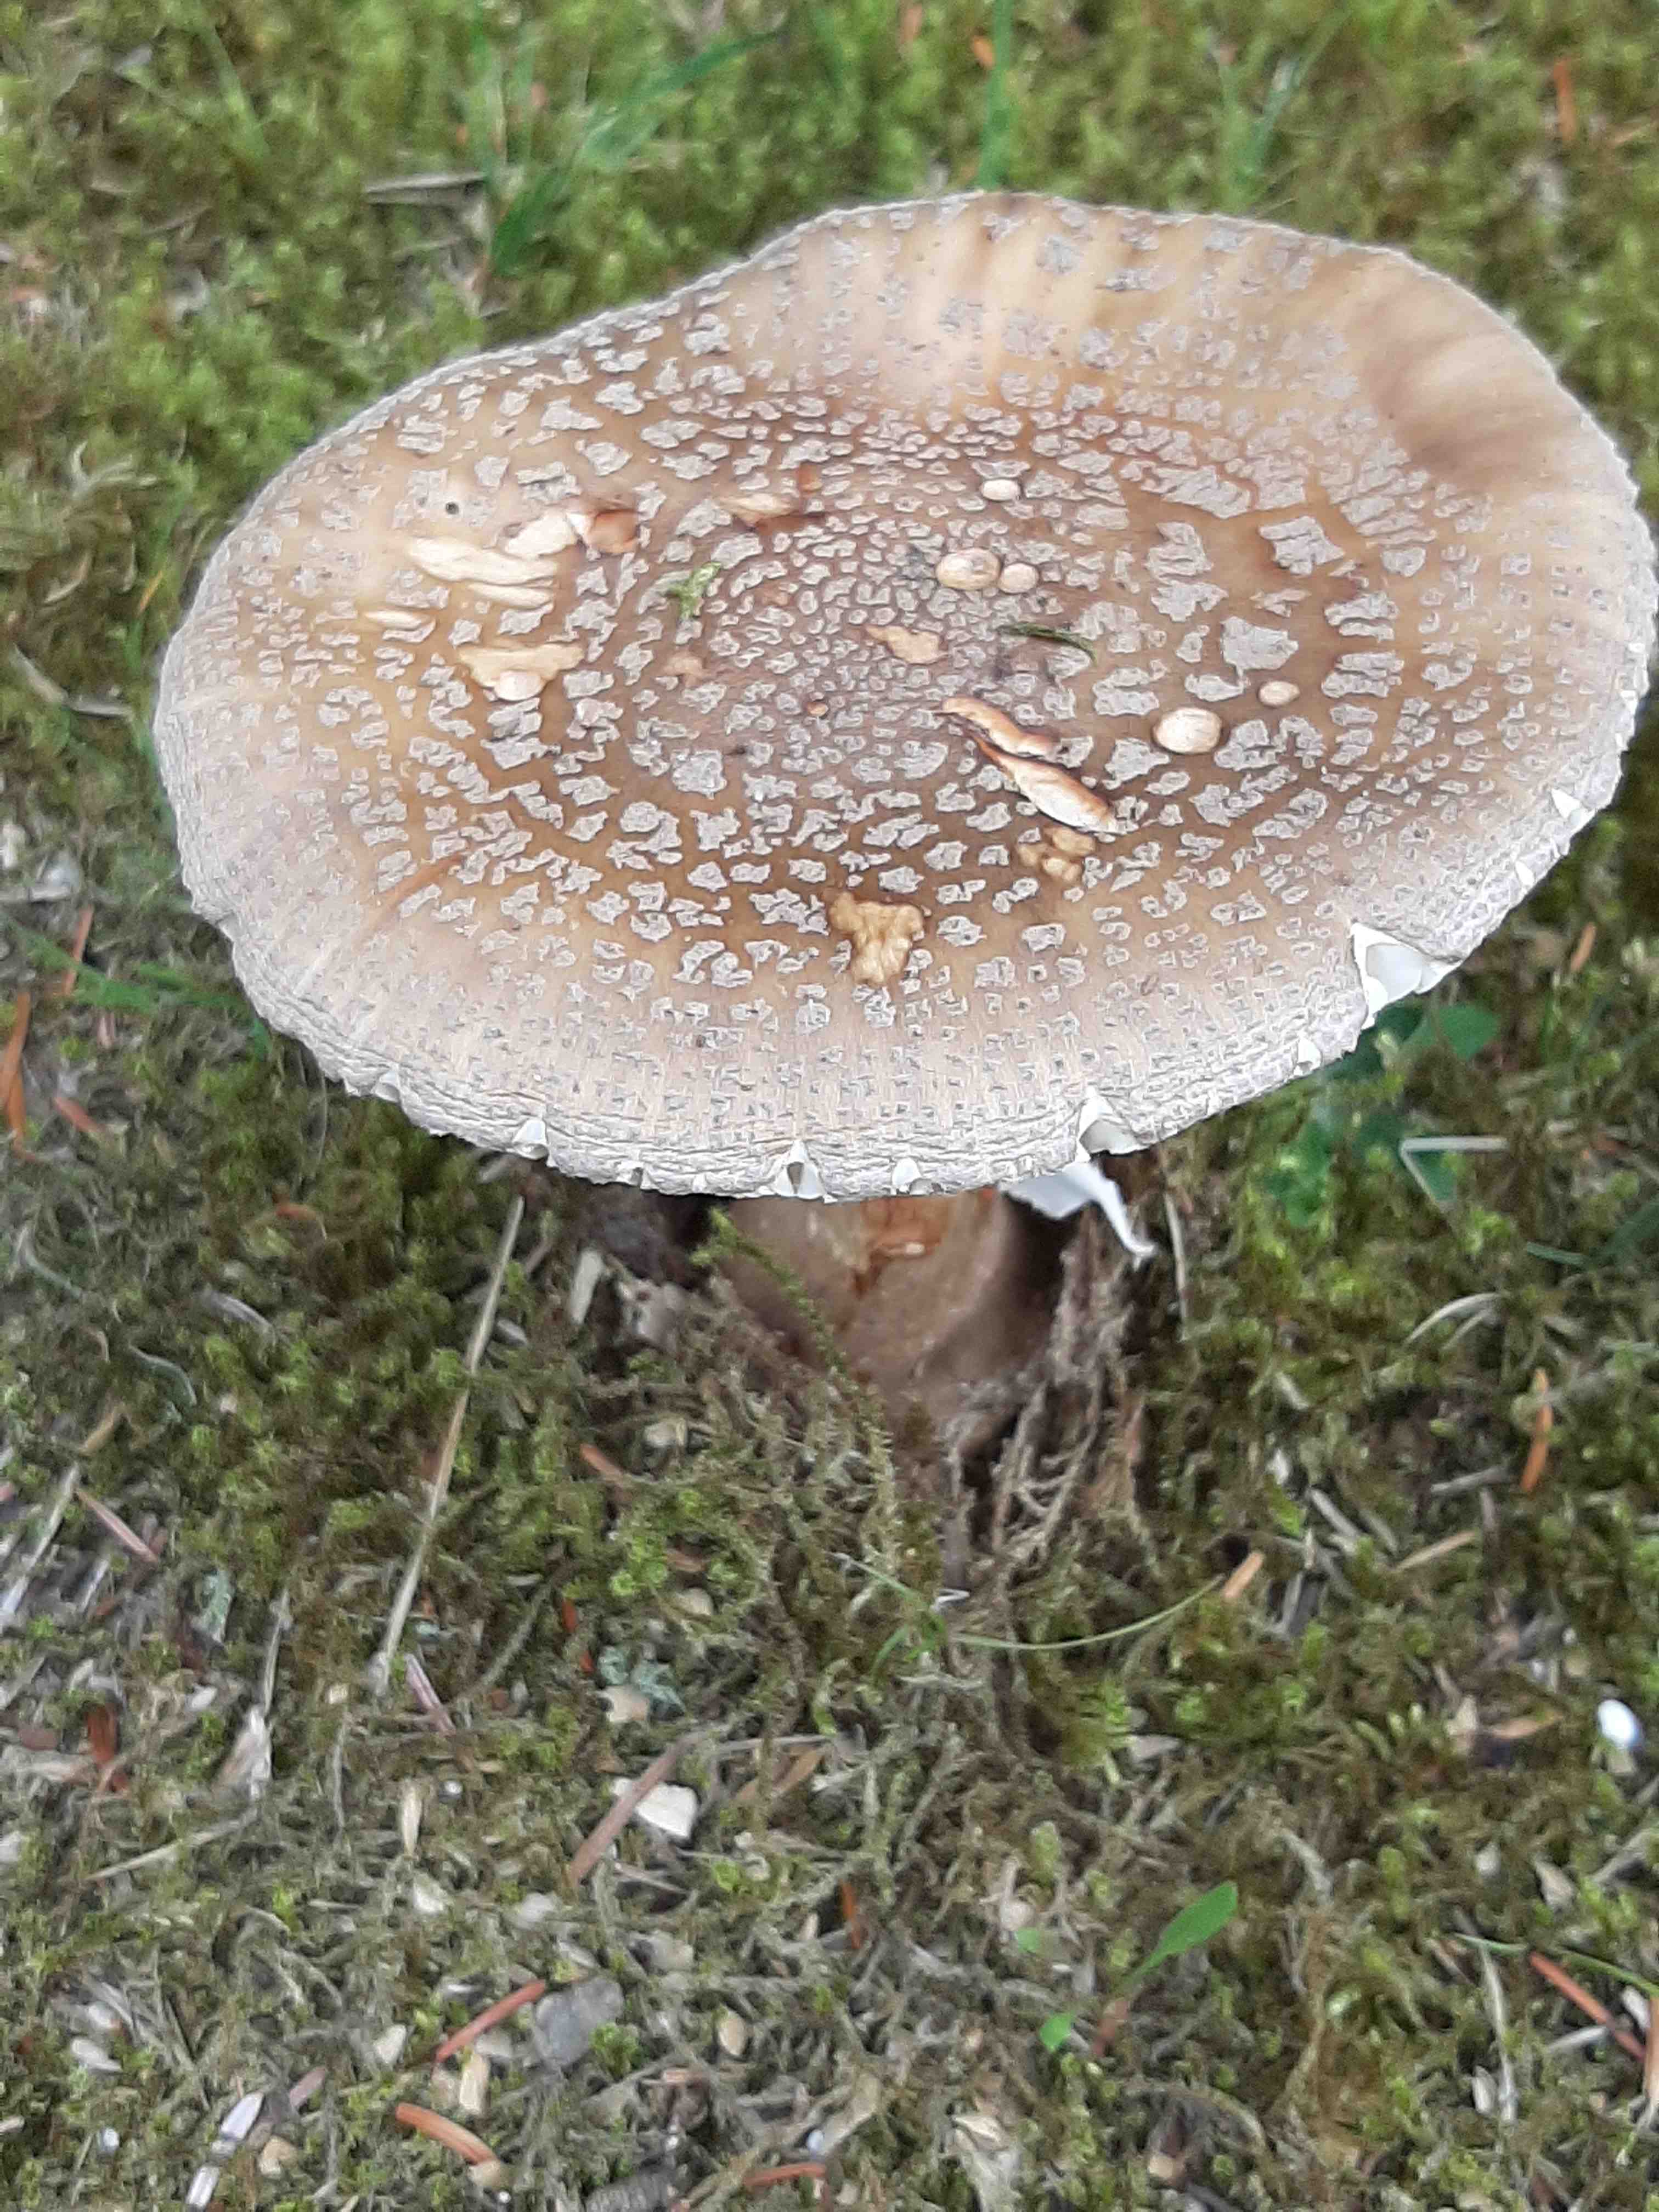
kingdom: Fungi
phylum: Basidiomycota
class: Agaricomycetes
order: Agaricales
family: Amanitaceae
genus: Amanita
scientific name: Amanita rubescens
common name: rødmende fluesvamp
